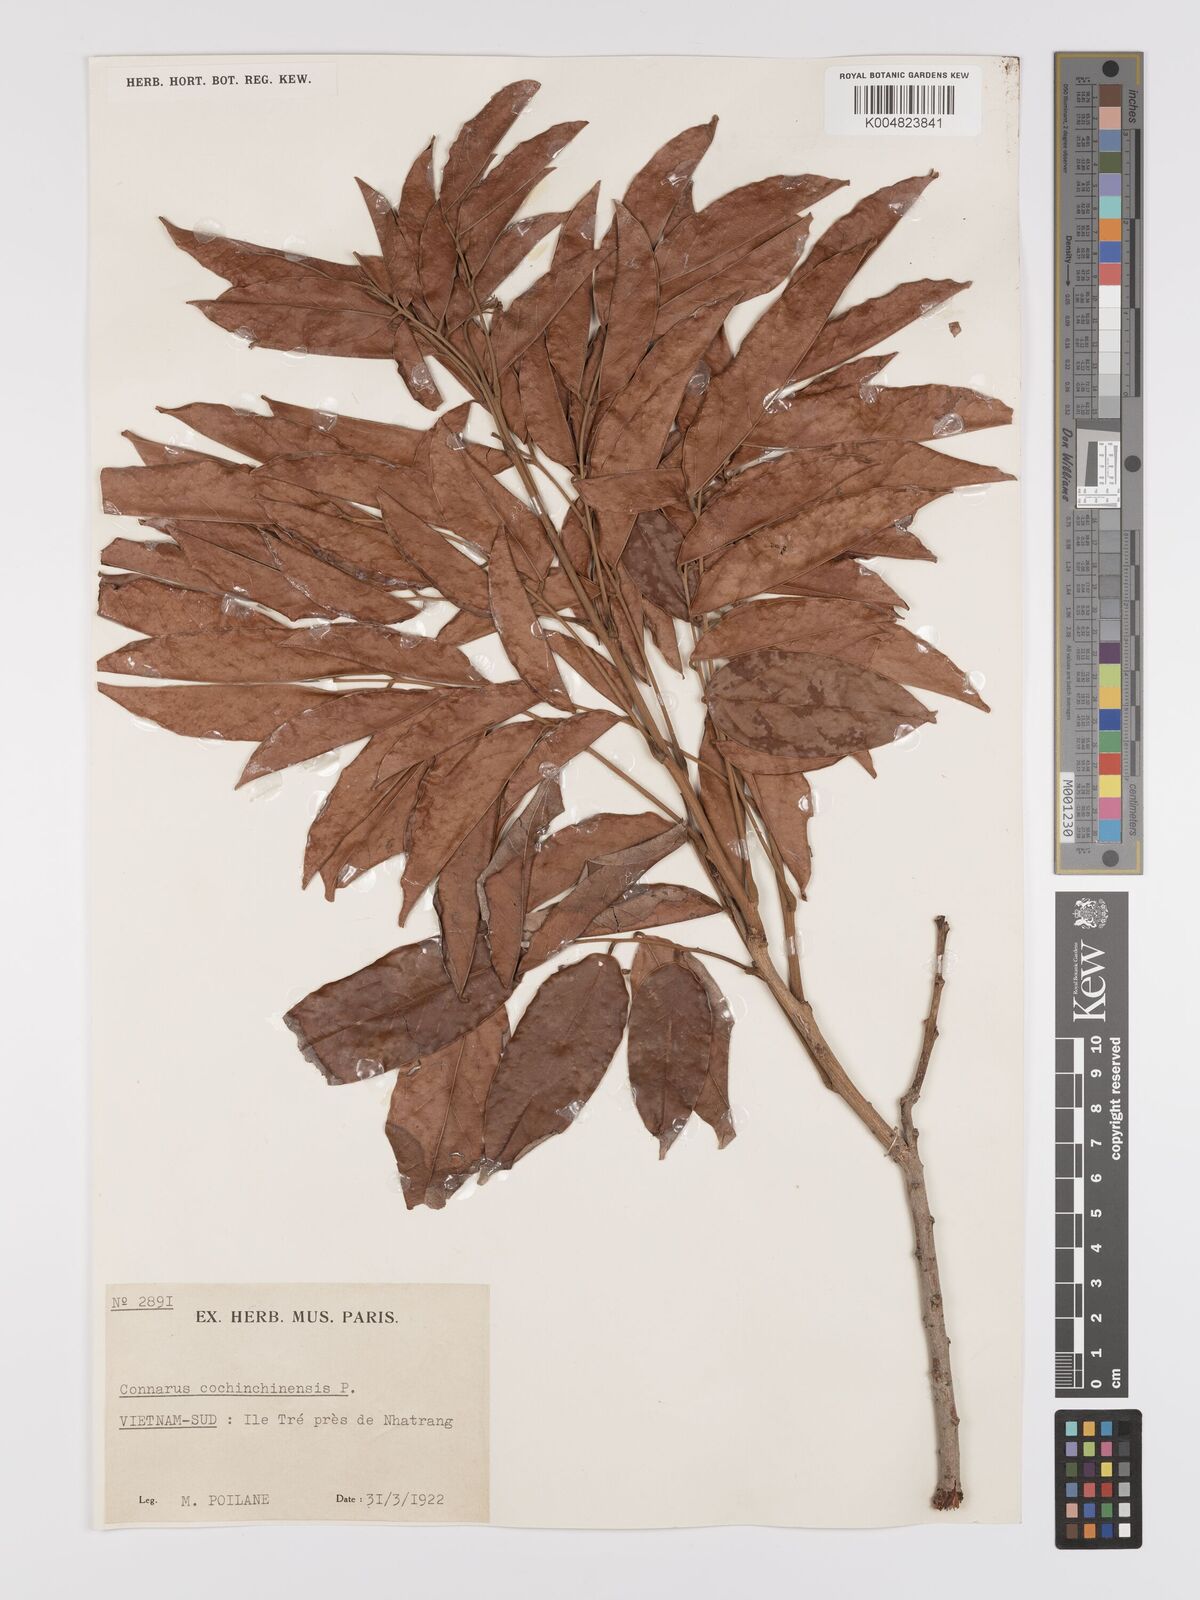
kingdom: Plantae
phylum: Tracheophyta
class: Magnoliopsida
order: Oxalidales
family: Connaraceae
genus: Connarus
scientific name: Connarus cochinchinensis
